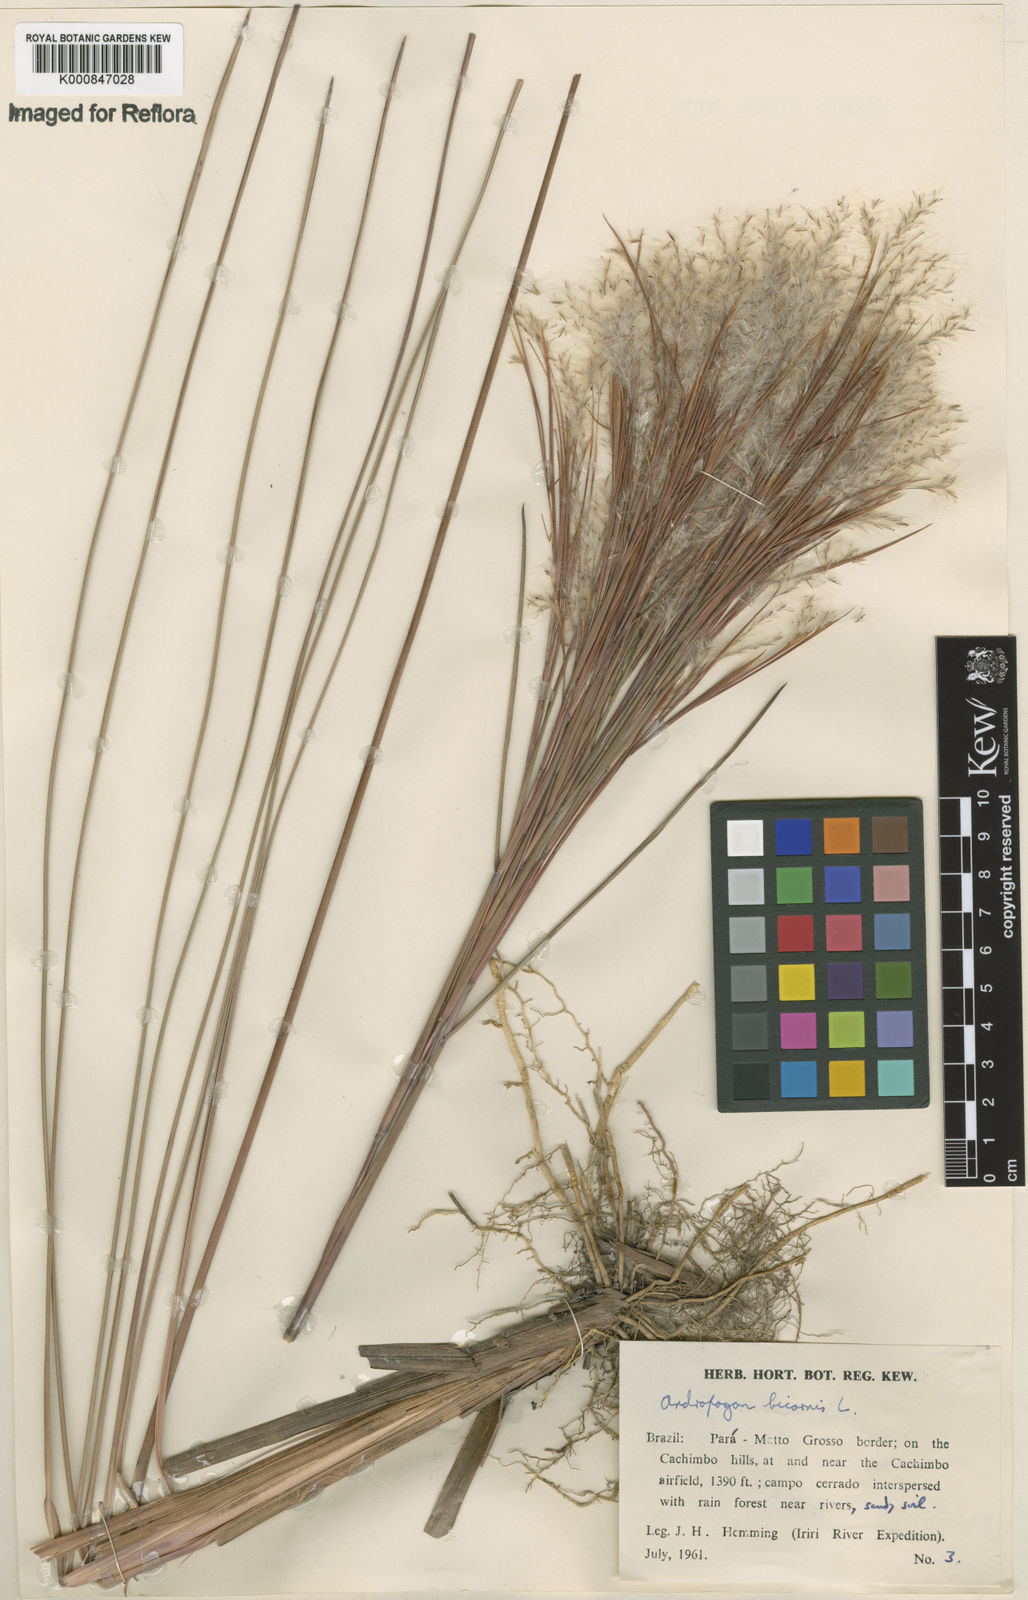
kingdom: Plantae
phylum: Tracheophyta
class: Liliopsida
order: Poales
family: Poaceae
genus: Andropogon
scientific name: Andropogon
